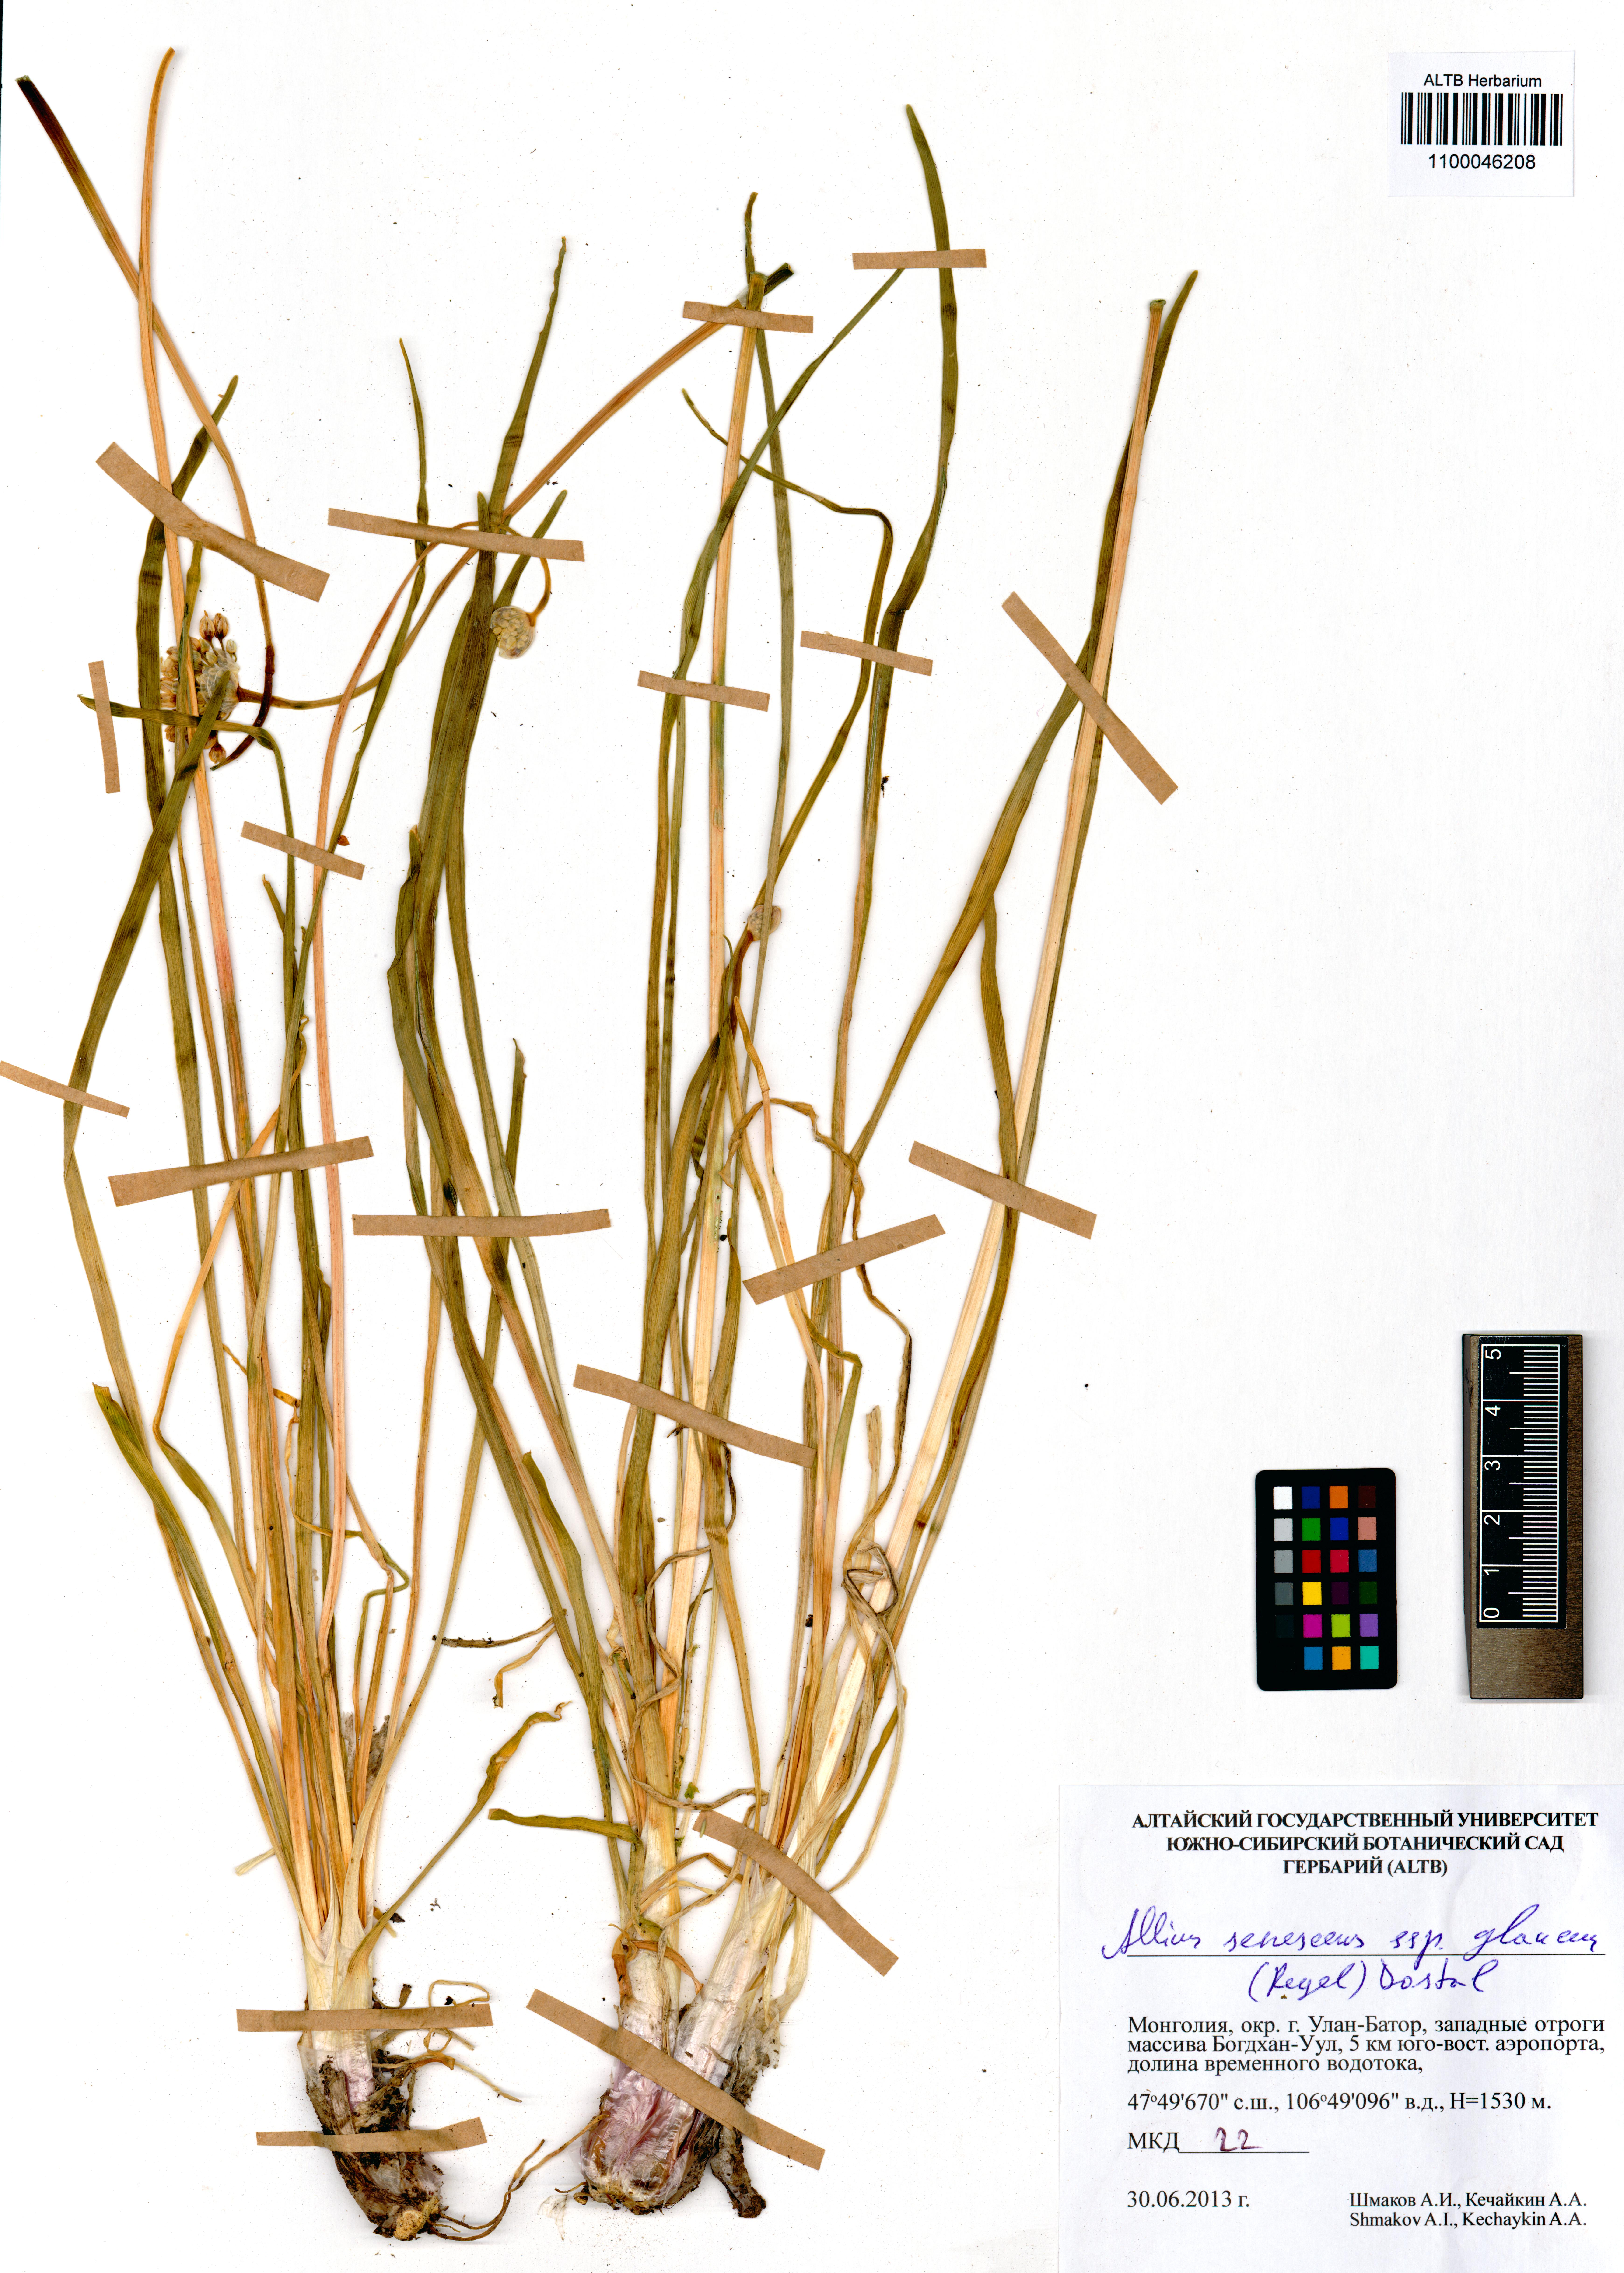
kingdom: Plantae
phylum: Tracheophyta
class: Liliopsida
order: Asparagales
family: Amaryllidaceae
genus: Allium
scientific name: Allium senescens
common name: German garlic
